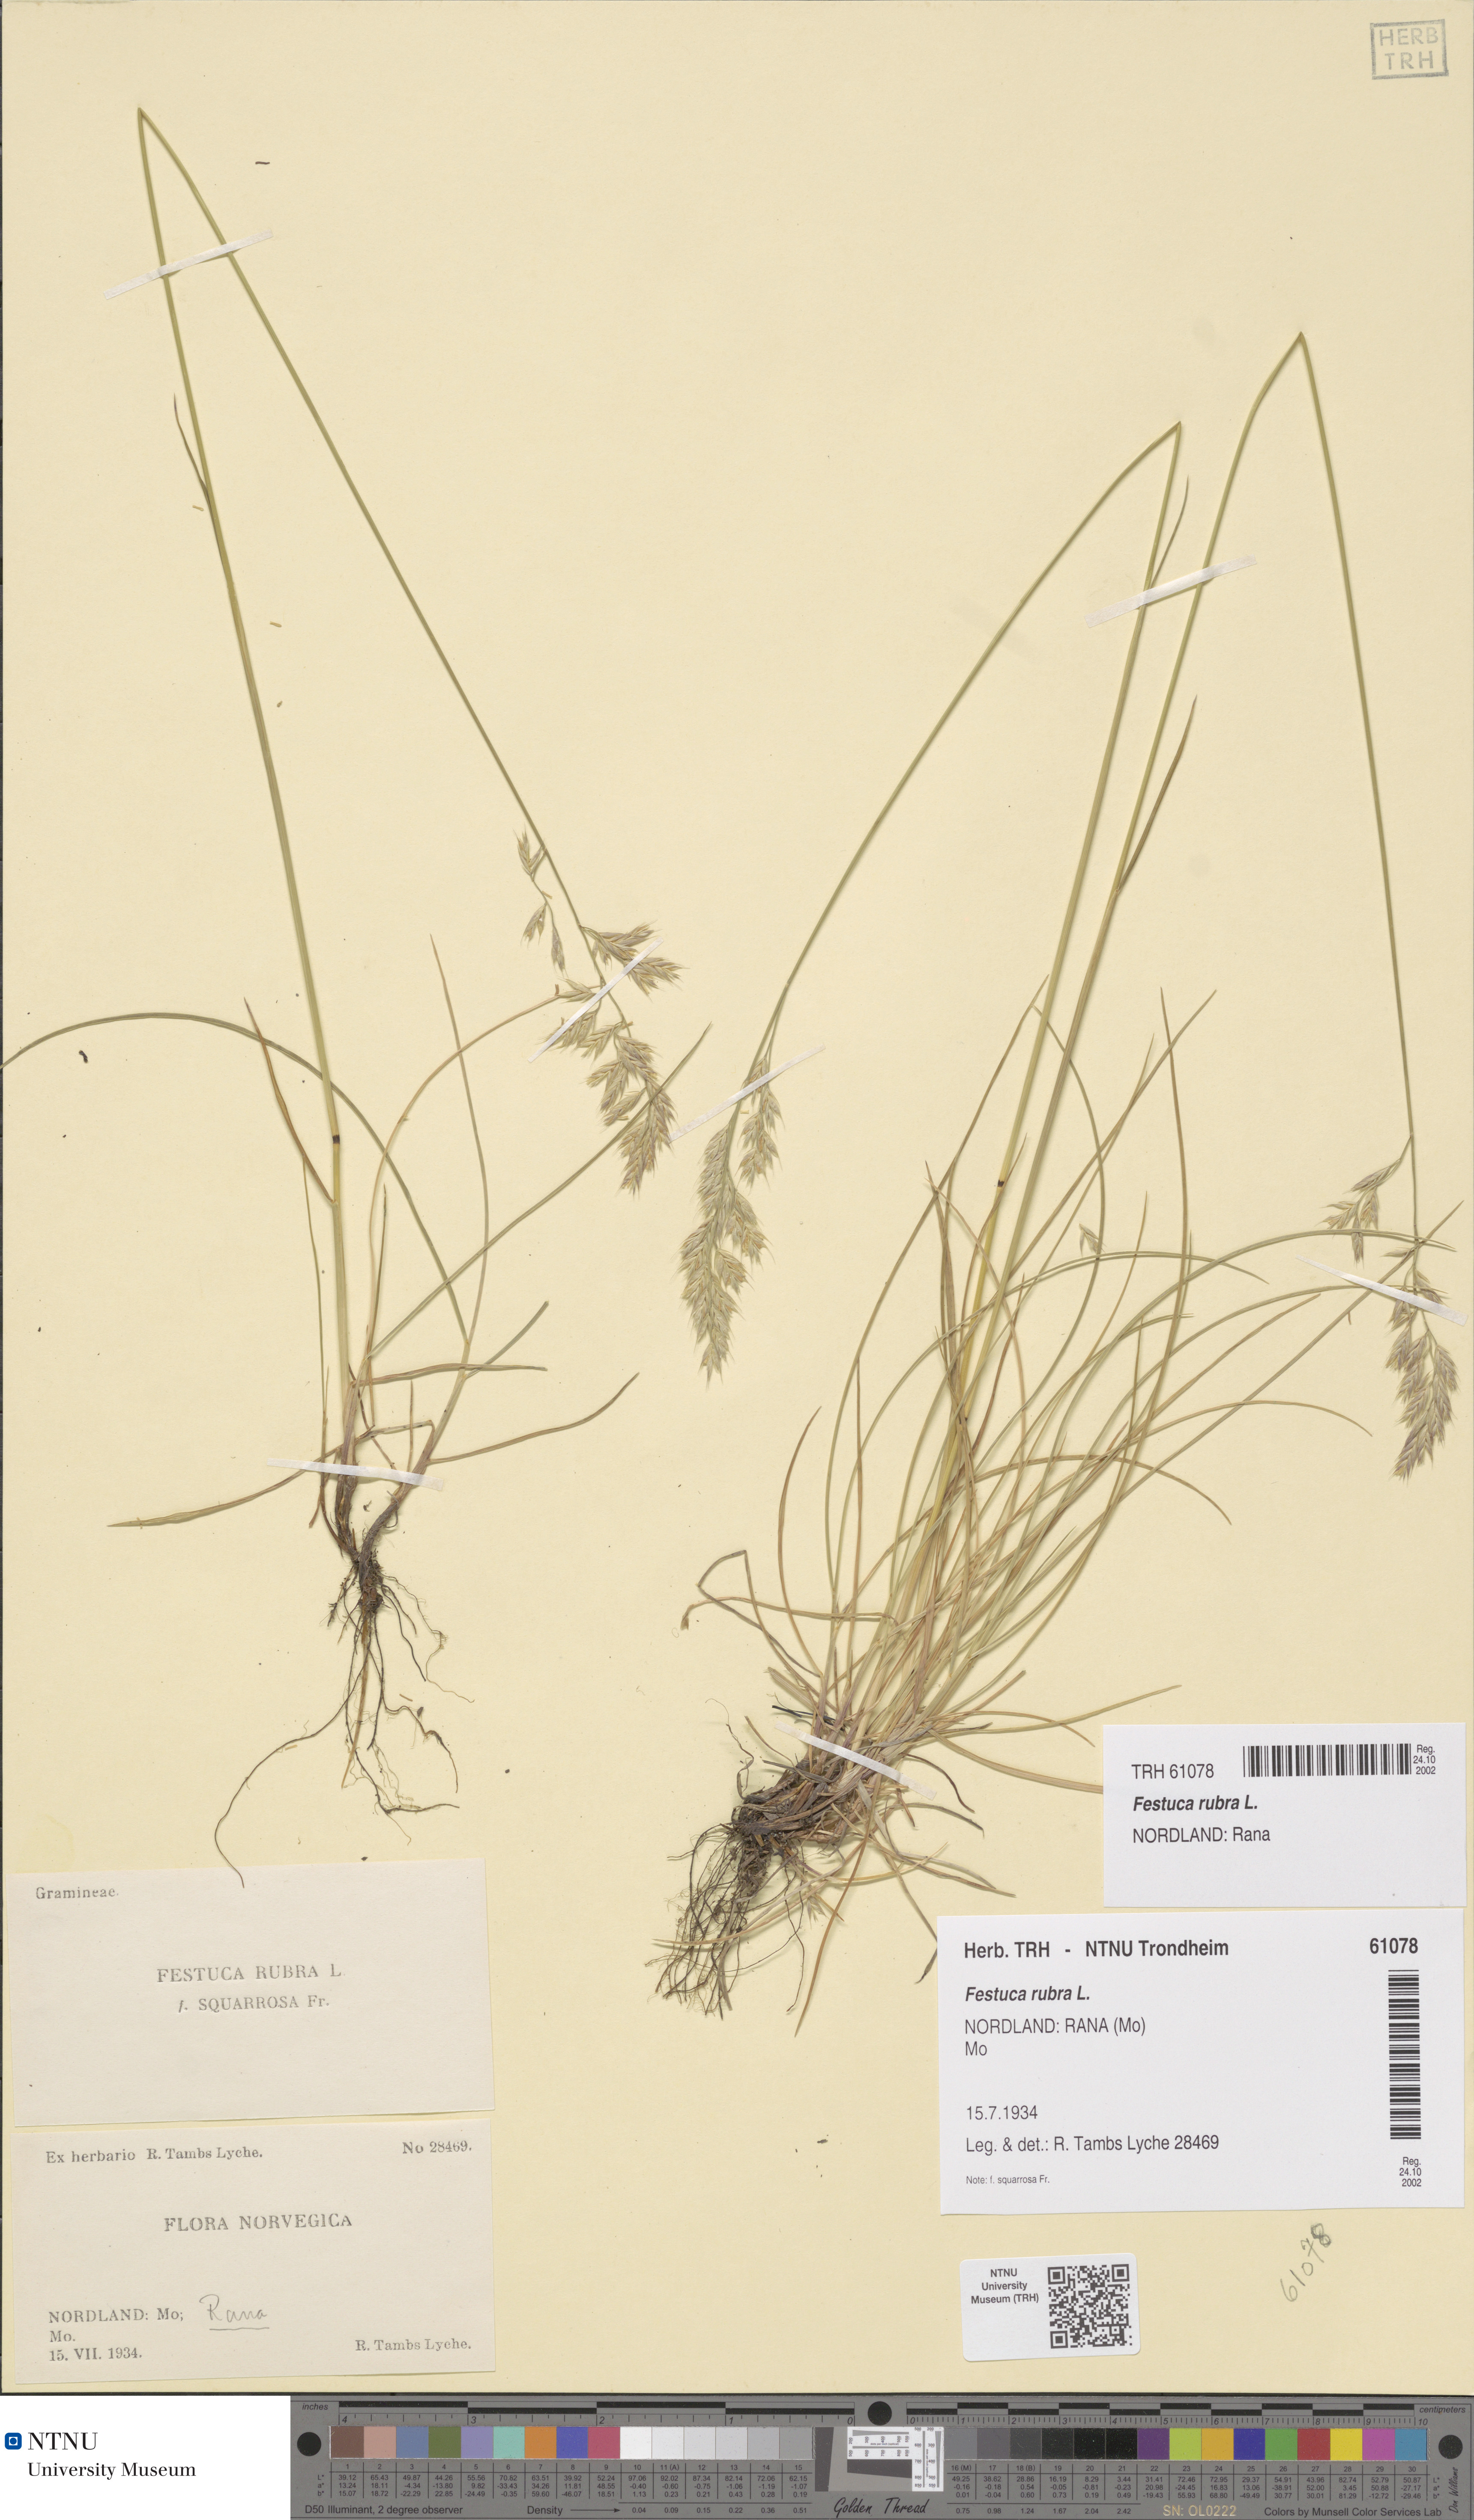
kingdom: Plantae
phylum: Tracheophyta
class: Liliopsida
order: Poales
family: Poaceae
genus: Festuca
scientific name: Festuca rubra
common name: Red fescue
